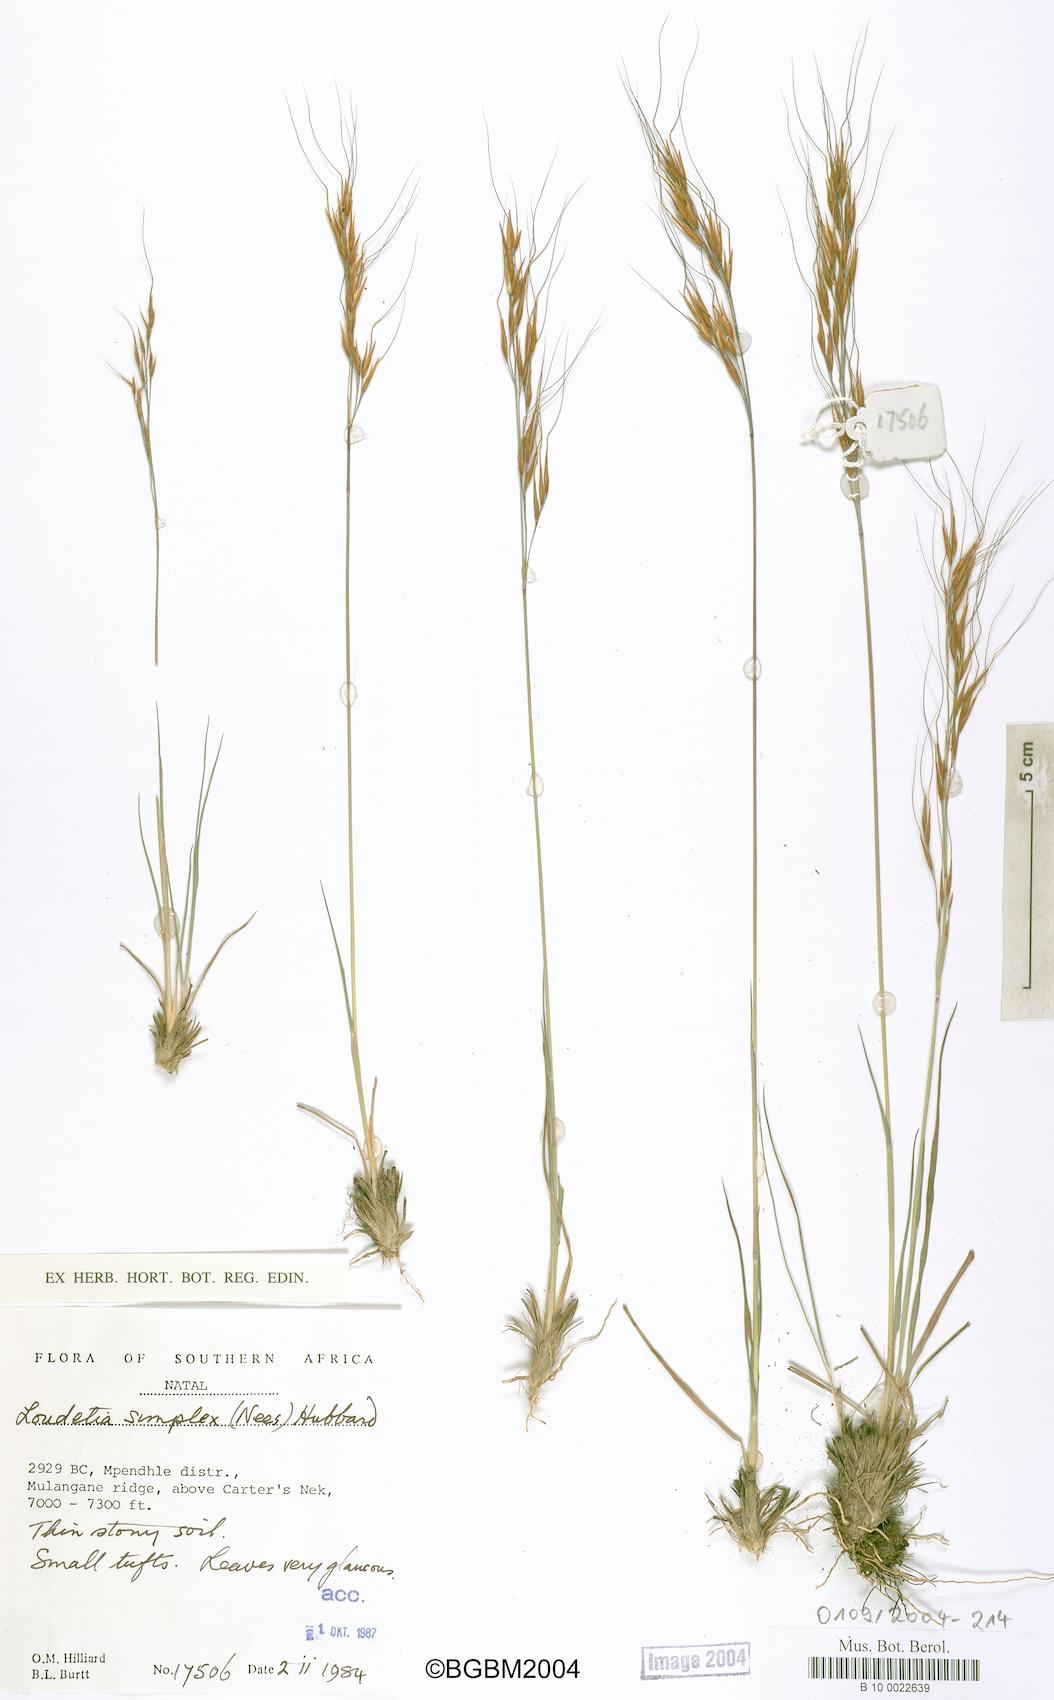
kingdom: Plantae
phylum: Tracheophyta
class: Liliopsida
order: Poales
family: Poaceae
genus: Loudetia
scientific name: Loudetia simplex
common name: Common russet grass
